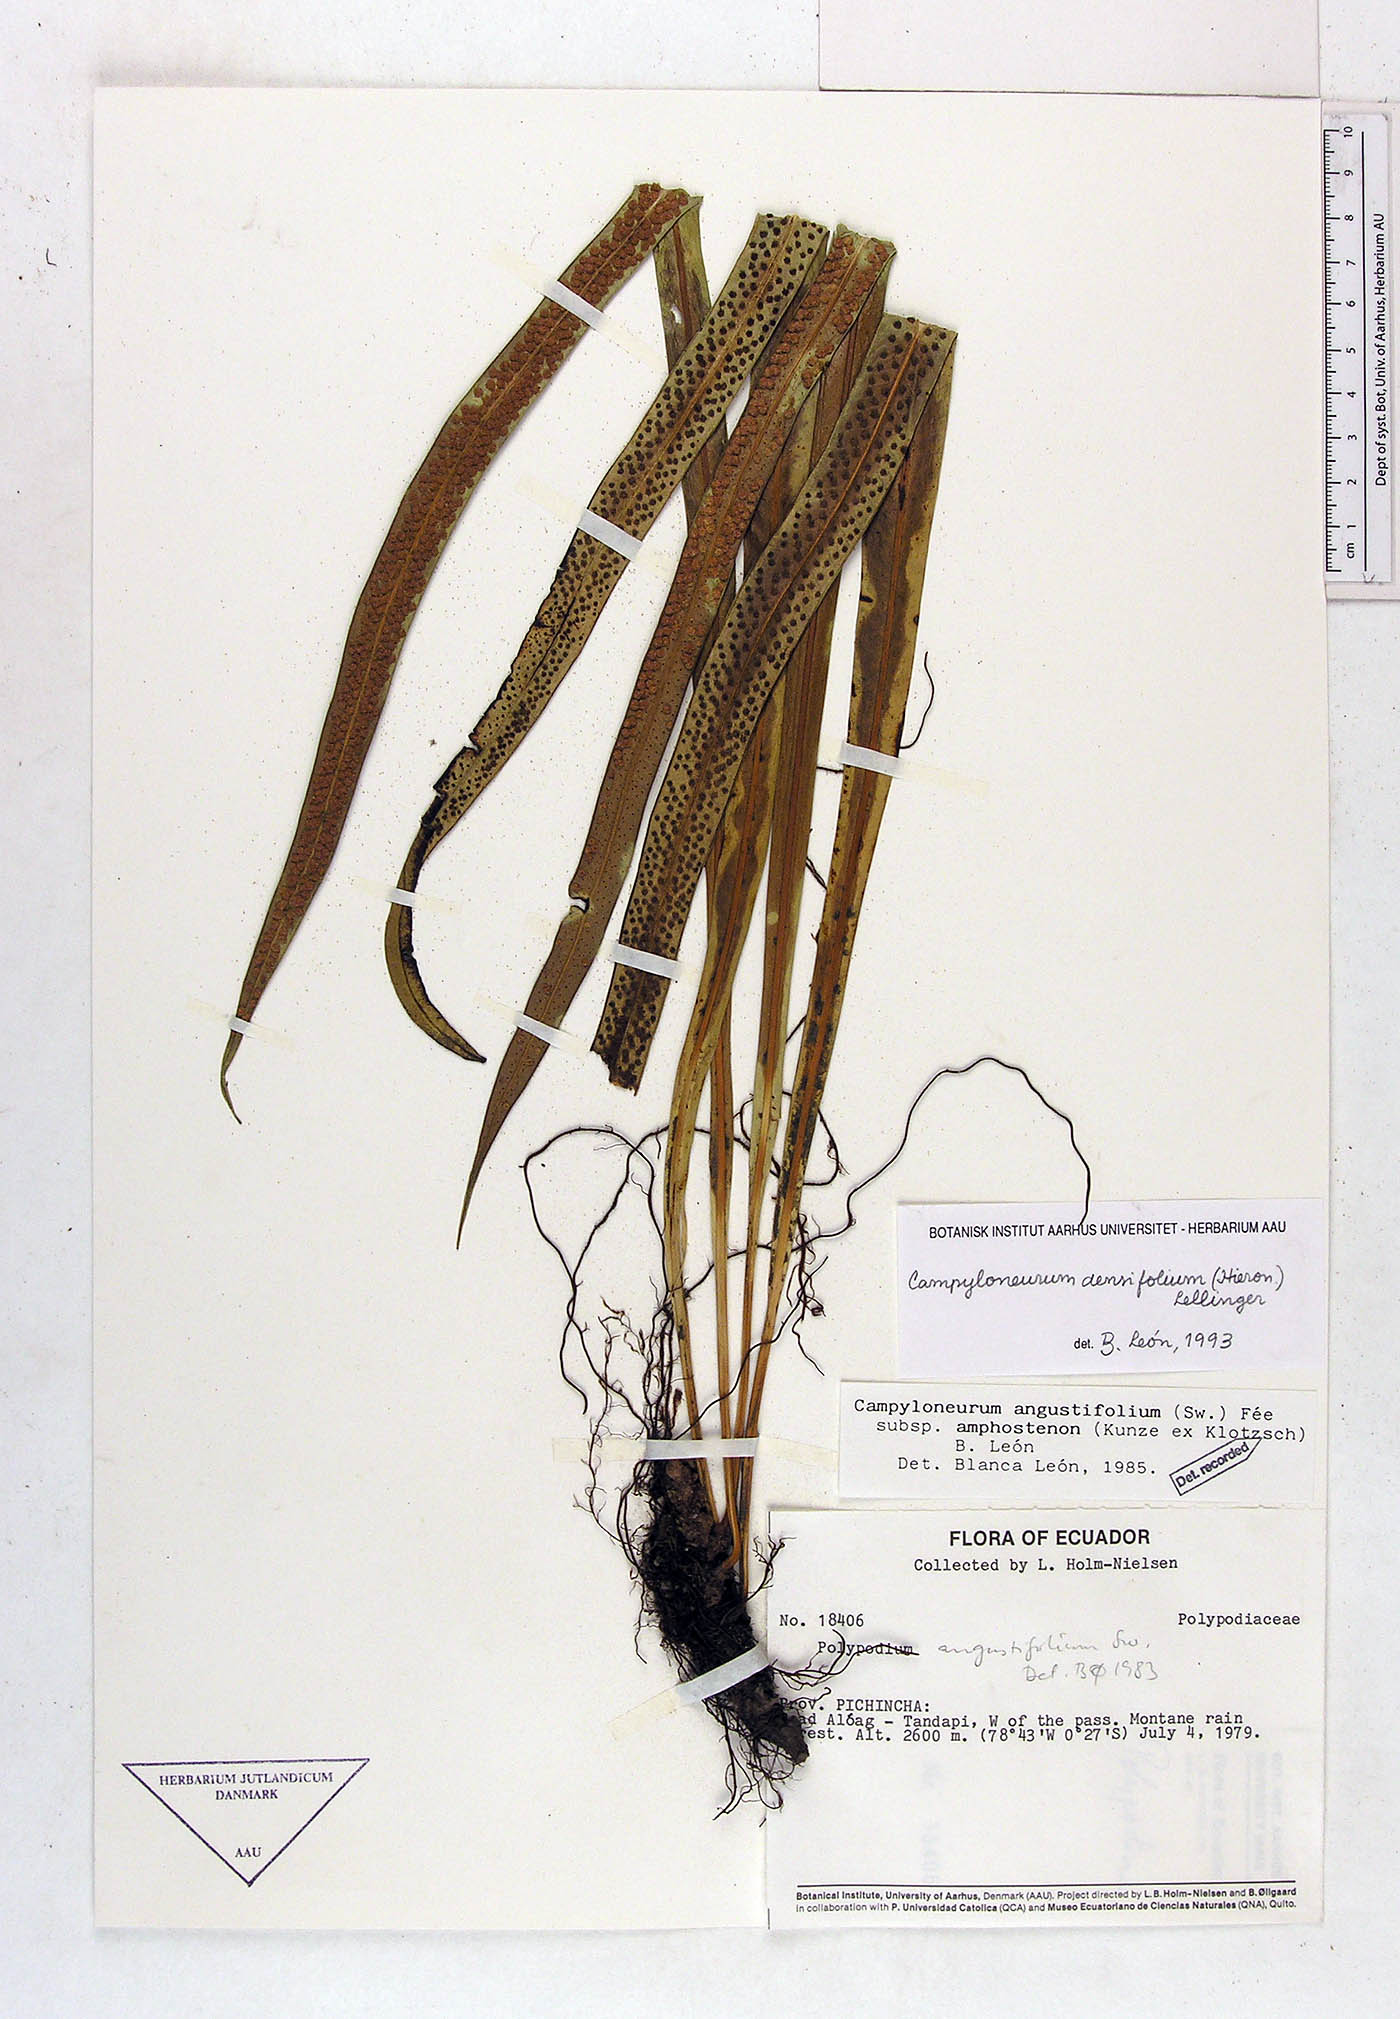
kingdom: Plantae
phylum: Tracheophyta
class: Polypodiopsida
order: Polypodiales
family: Polypodiaceae
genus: Campyloneurum
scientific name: Campyloneurum densifolium
